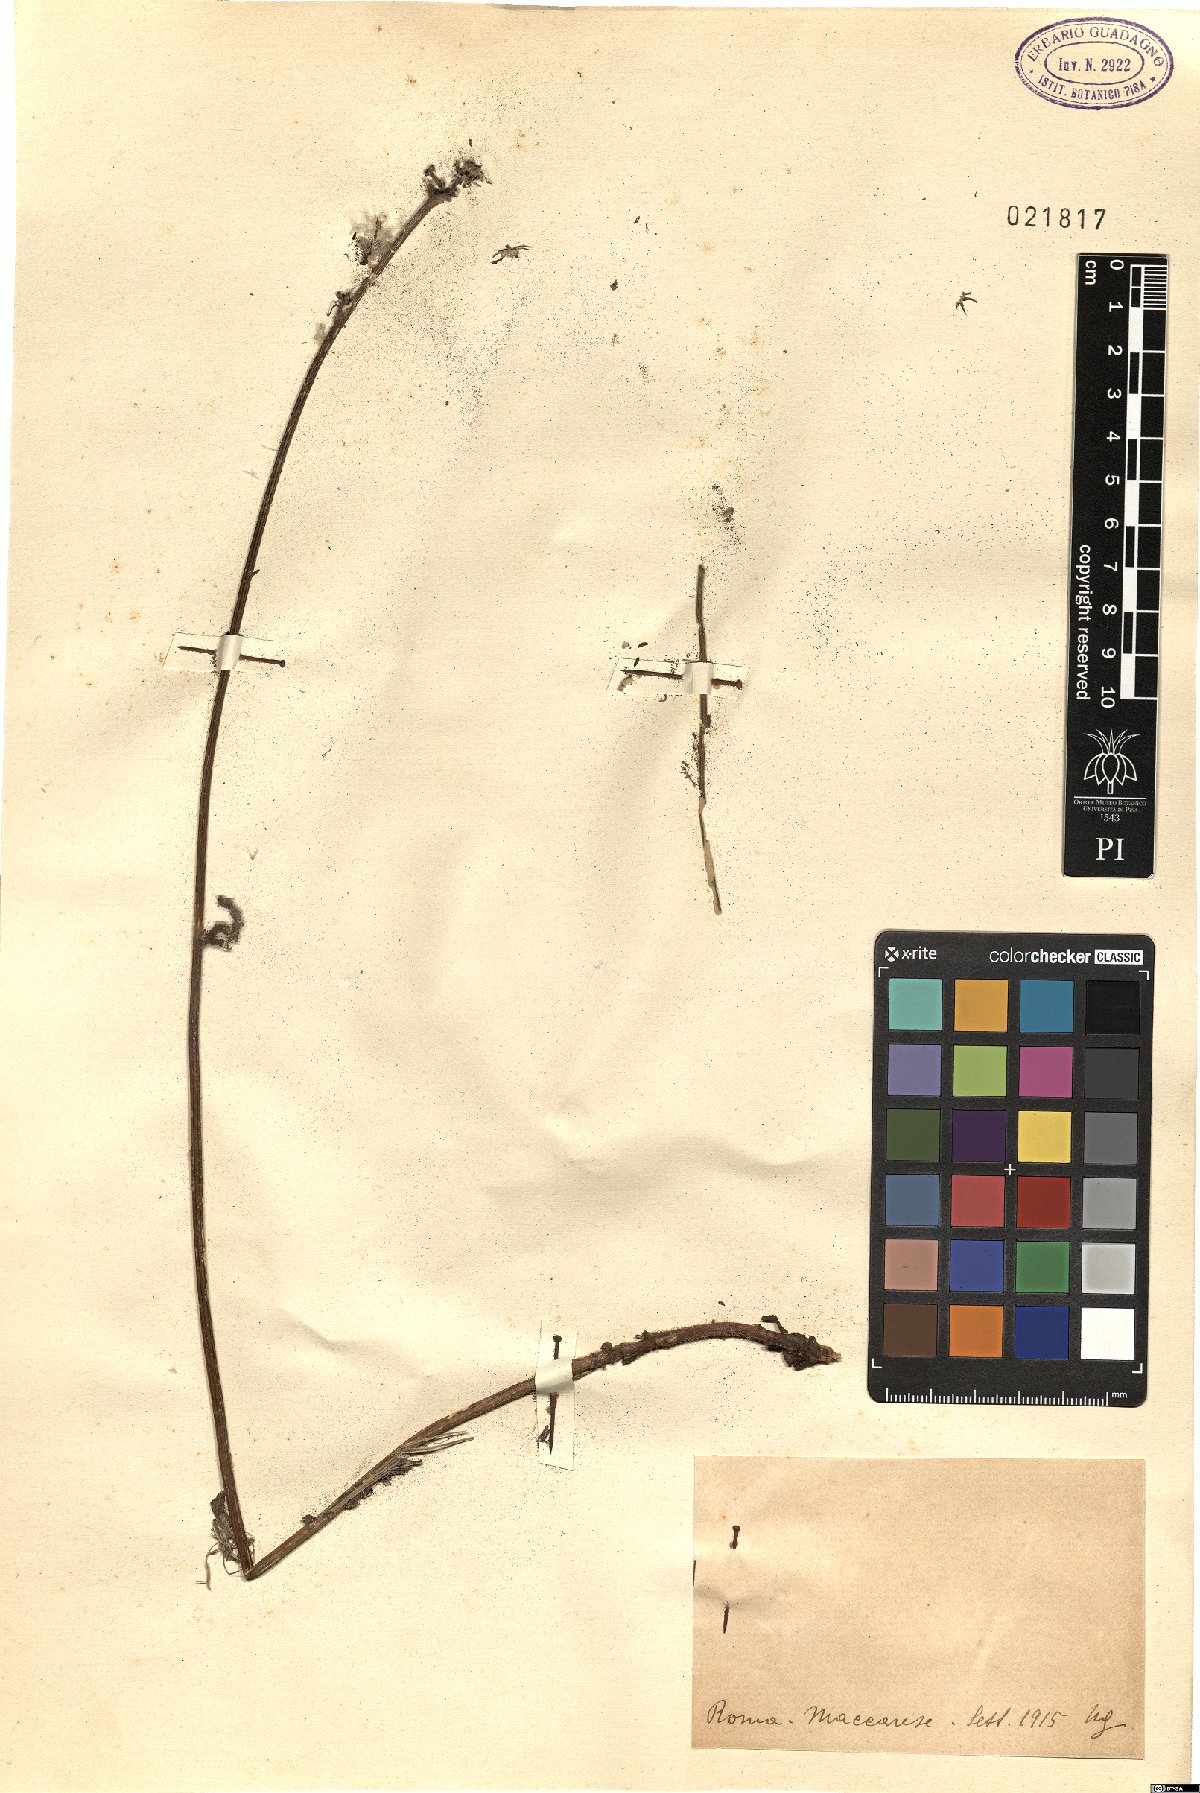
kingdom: Plantae
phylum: Tracheophyta
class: Magnoliopsida
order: Asterales
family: Asteraceae
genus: Picris
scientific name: Picris
